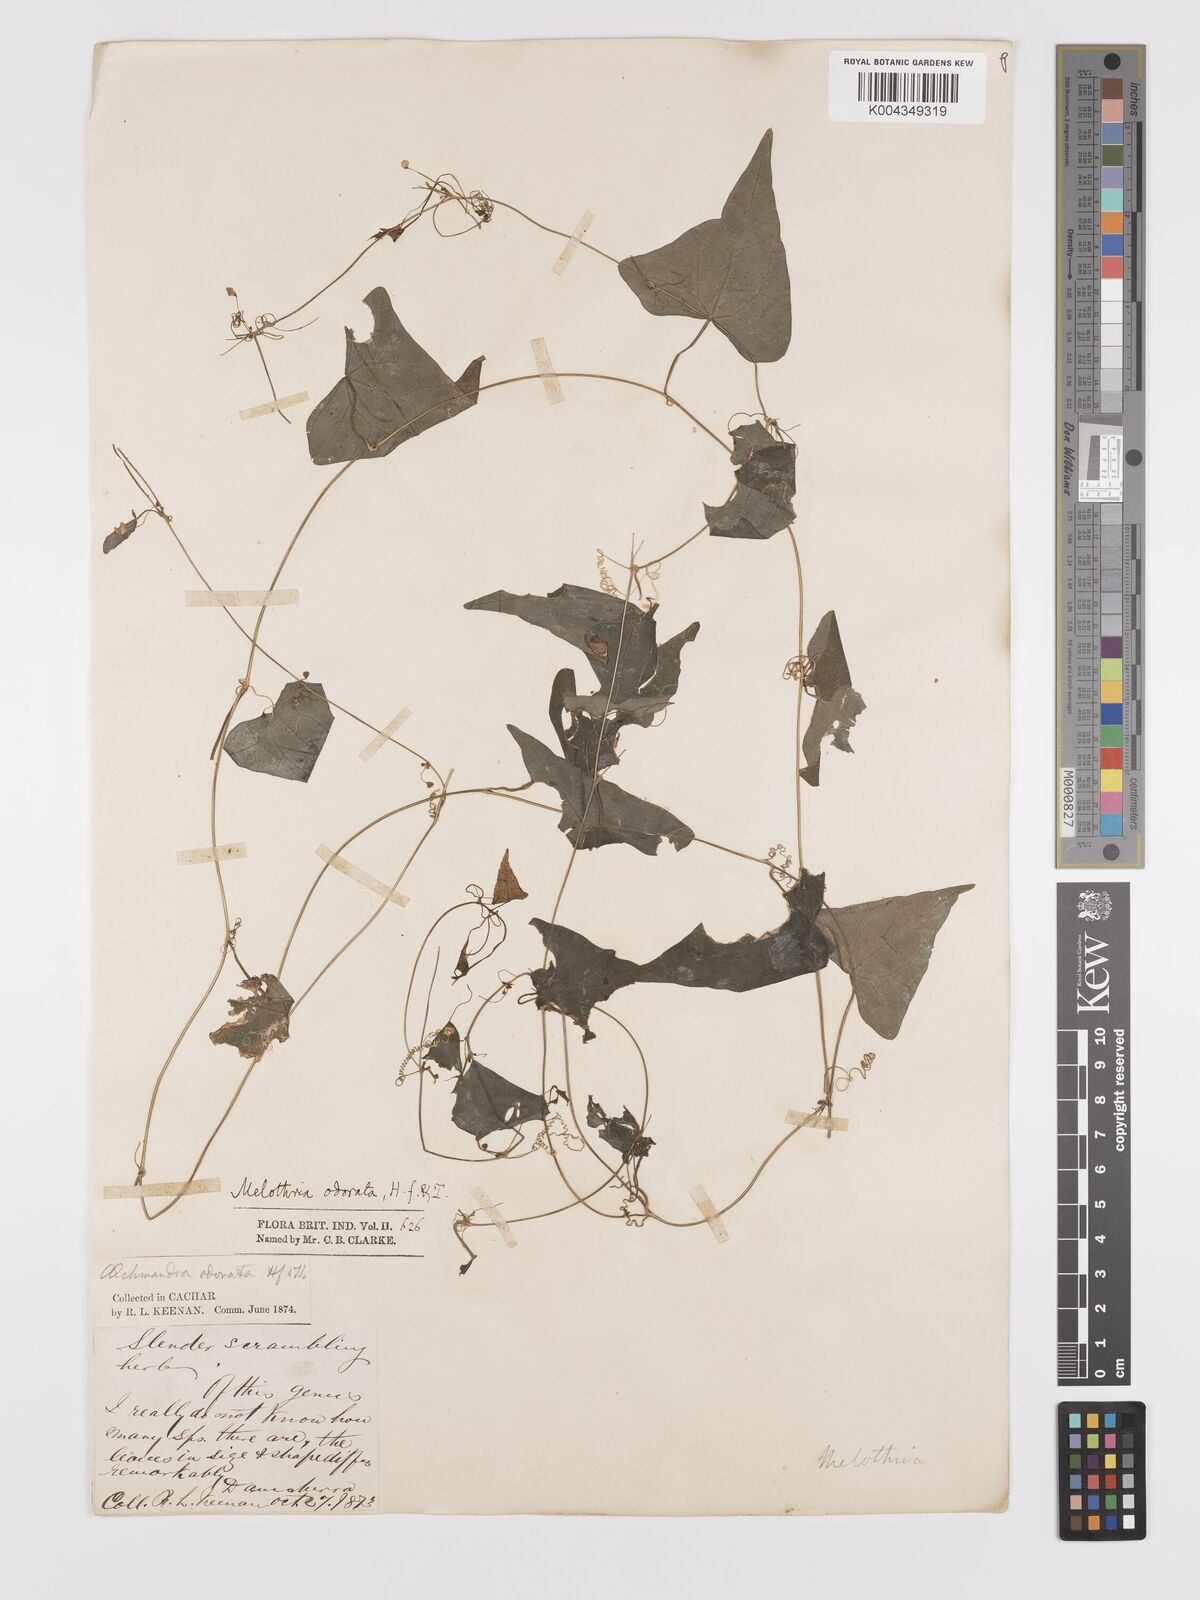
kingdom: Plantae
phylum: Tracheophyta
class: Magnoliopsida
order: Cucurbitales
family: Cucurbitaceae
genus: Zehneria
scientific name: Zehneria odorata
